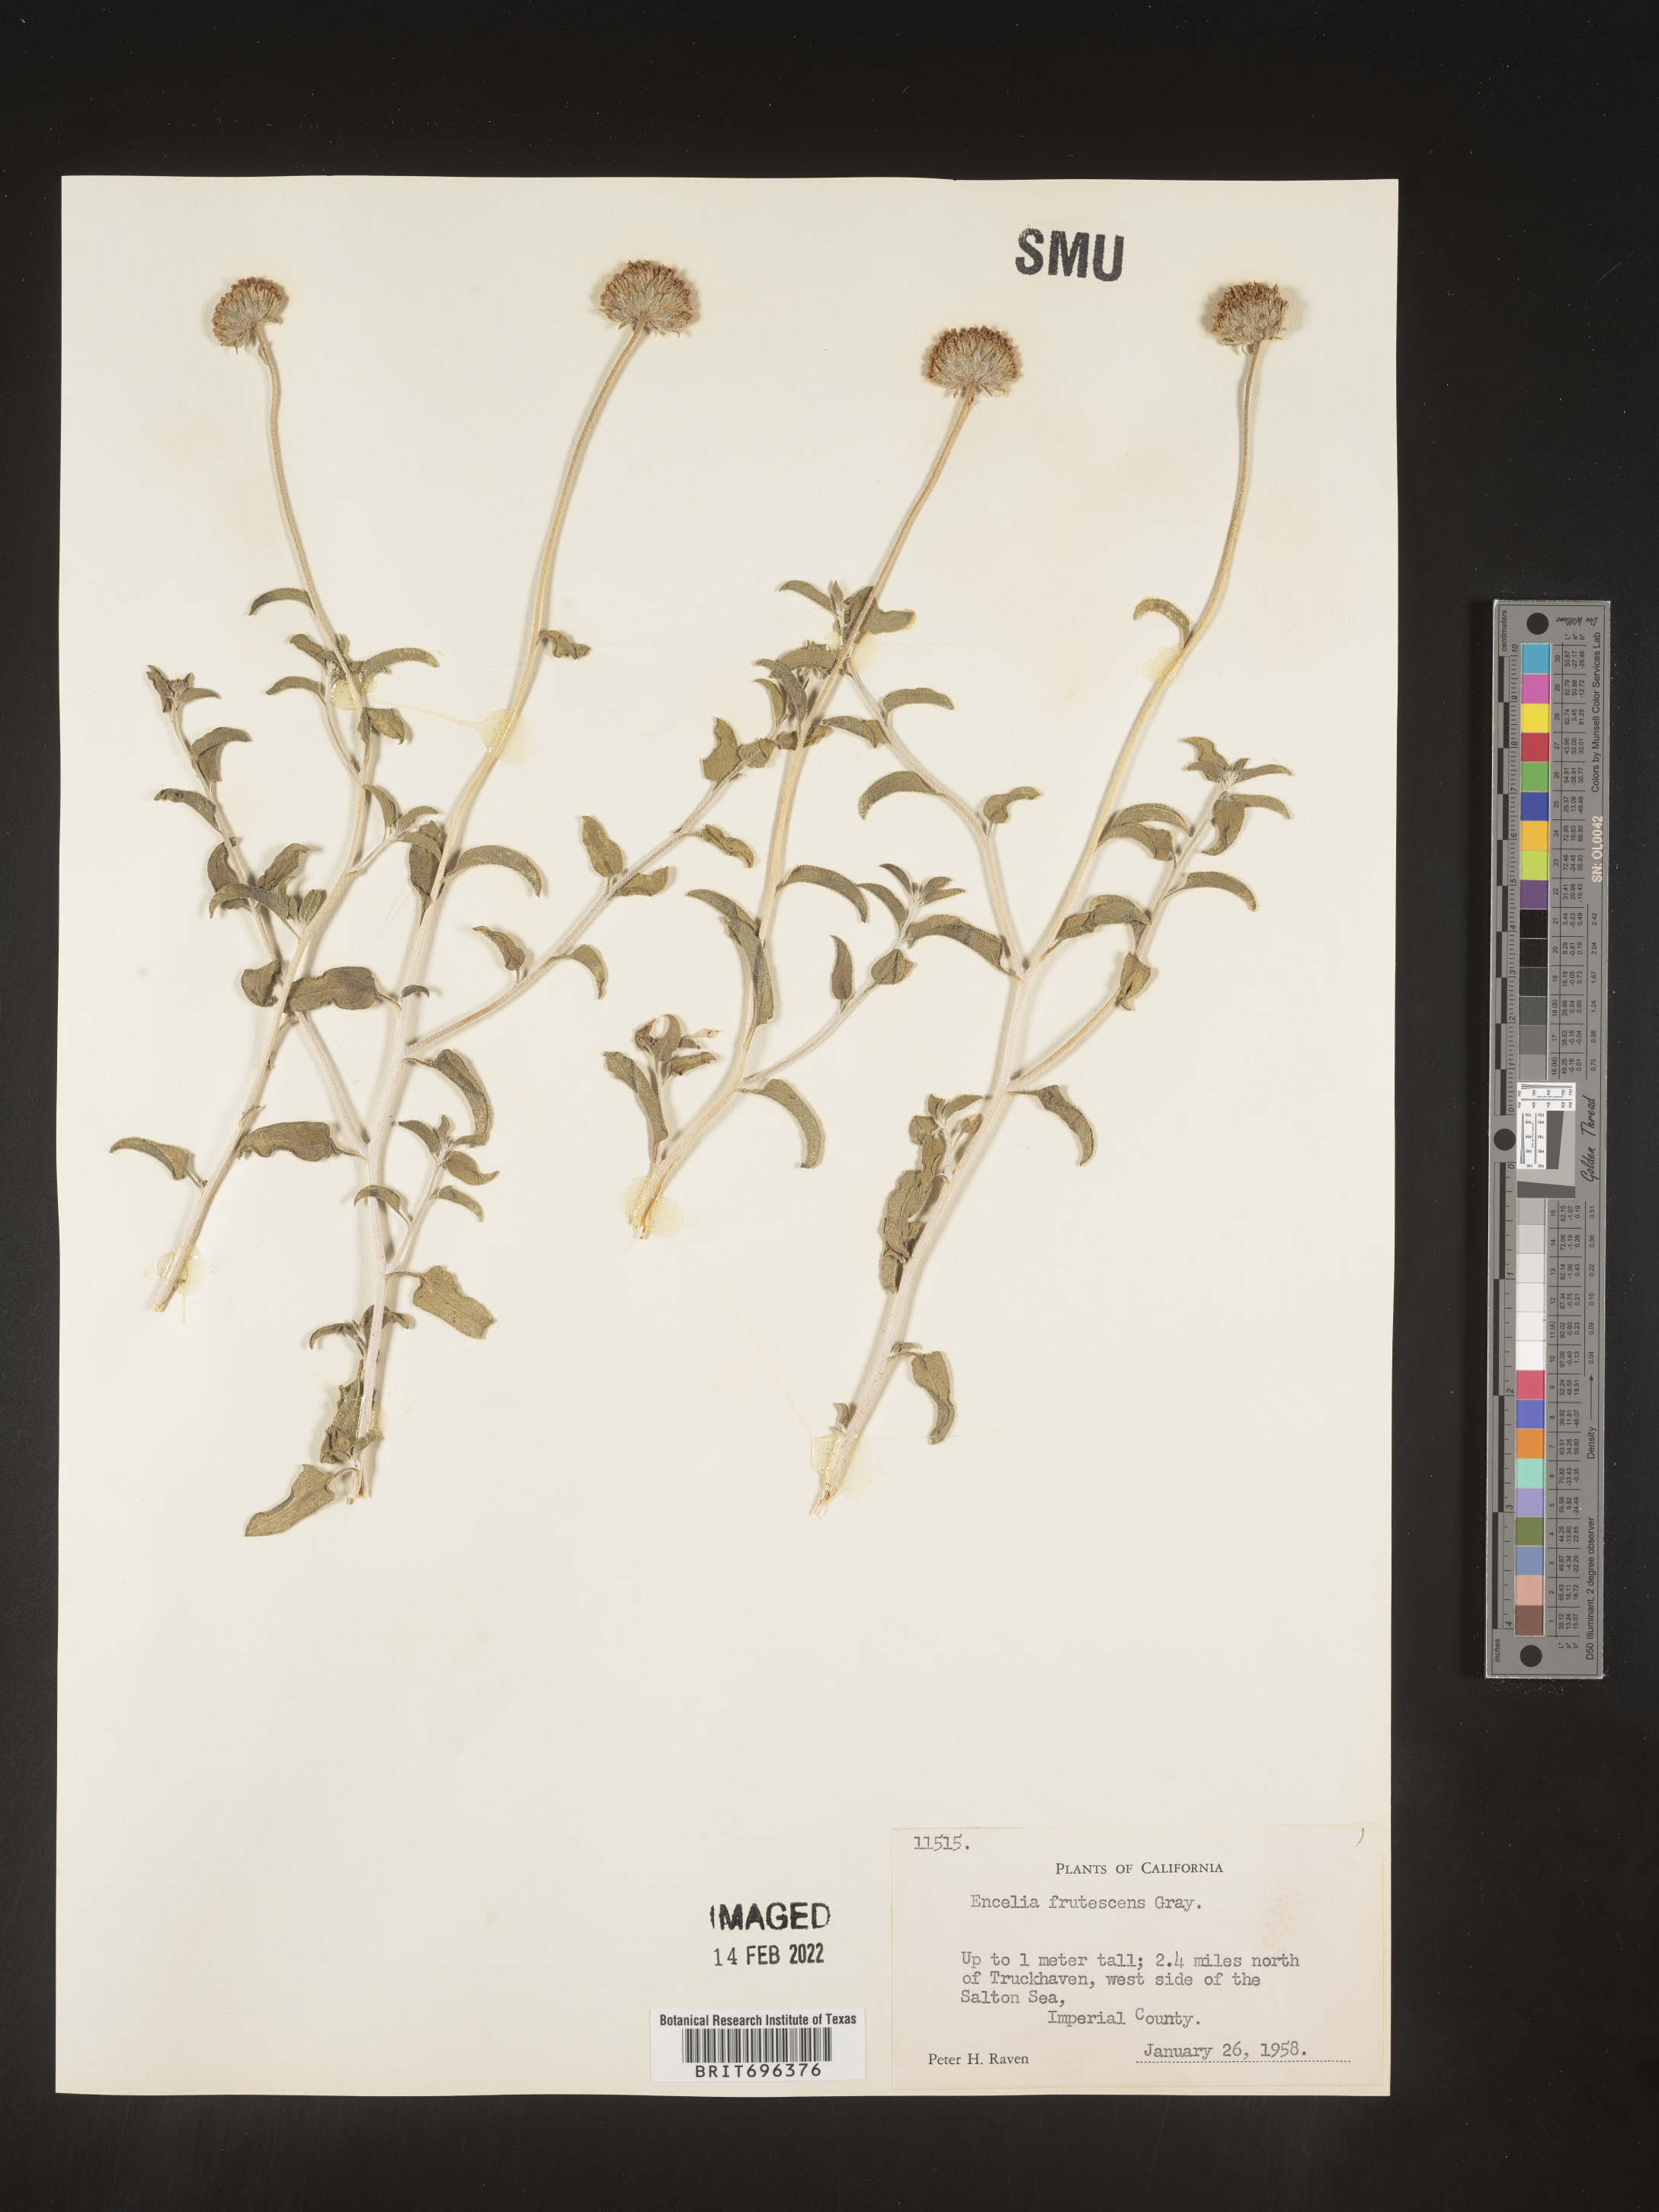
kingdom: Plantae
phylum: Tracheophyta
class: Magnoliopsida
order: Asterales
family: Asteraceae
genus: Encelia
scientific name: Encelia frutescens
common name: Bush encelia
